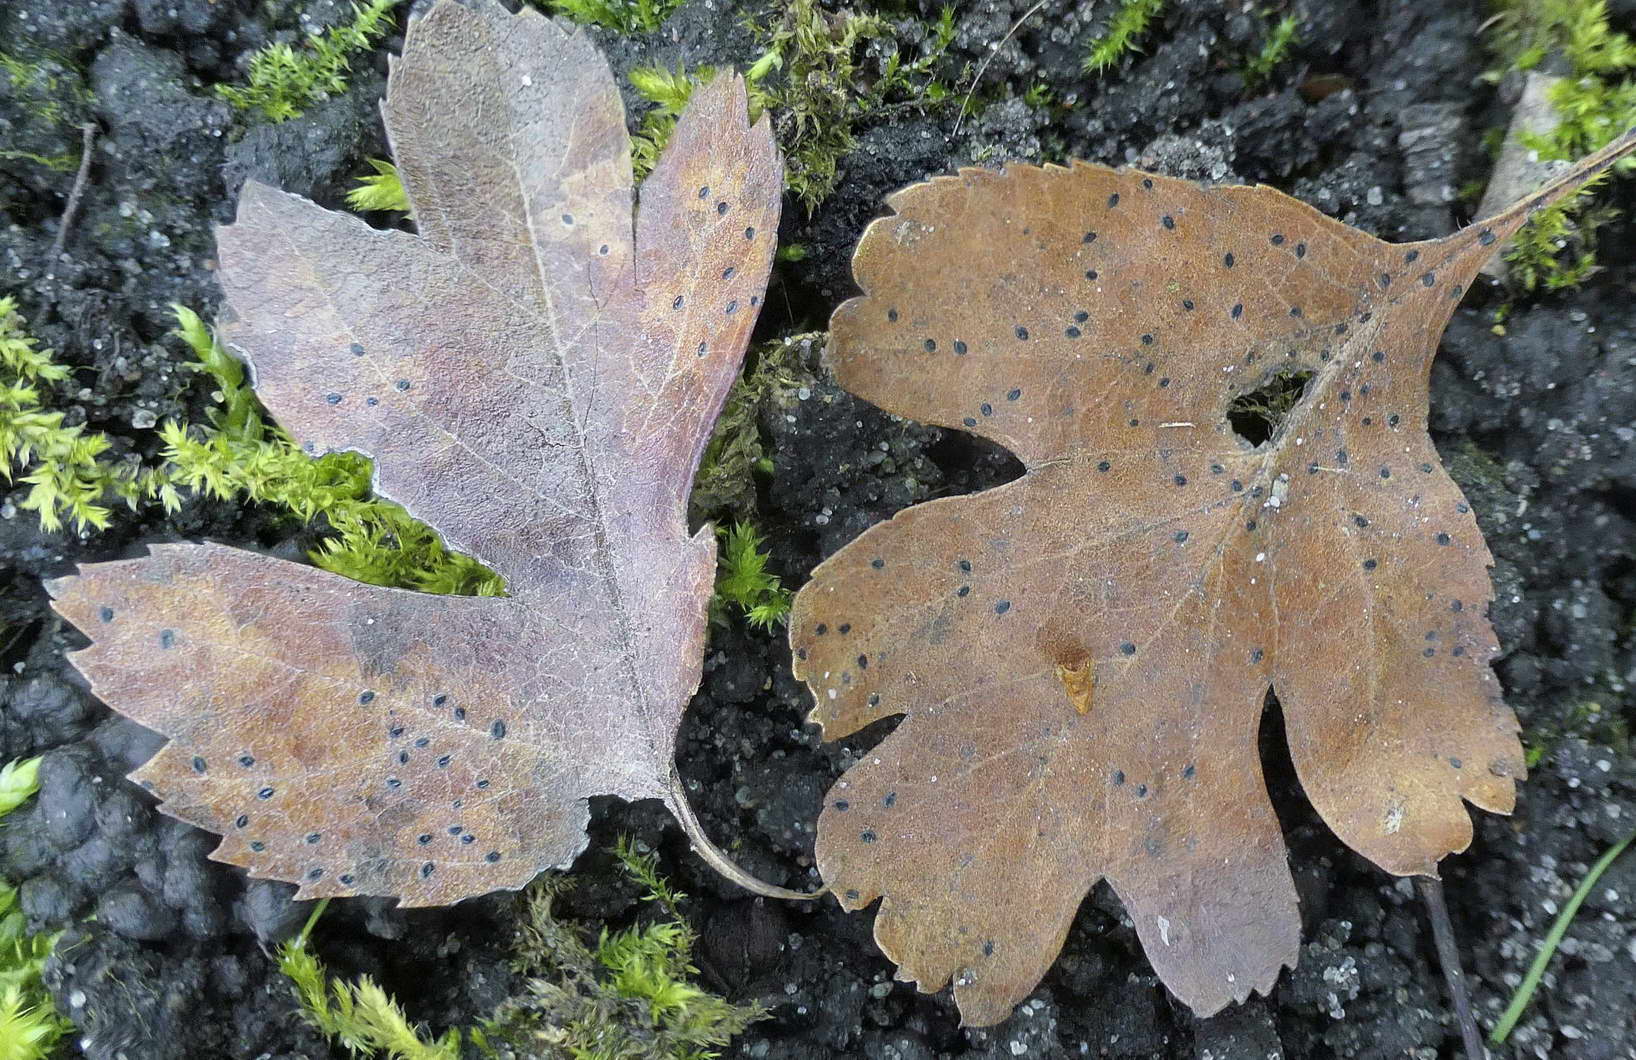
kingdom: Fungi
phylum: Ascomycota
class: Leotiomycetes
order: Rhytismatales
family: Rhytismataceae
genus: Lophodermium
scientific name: Lophodermium foliicola
